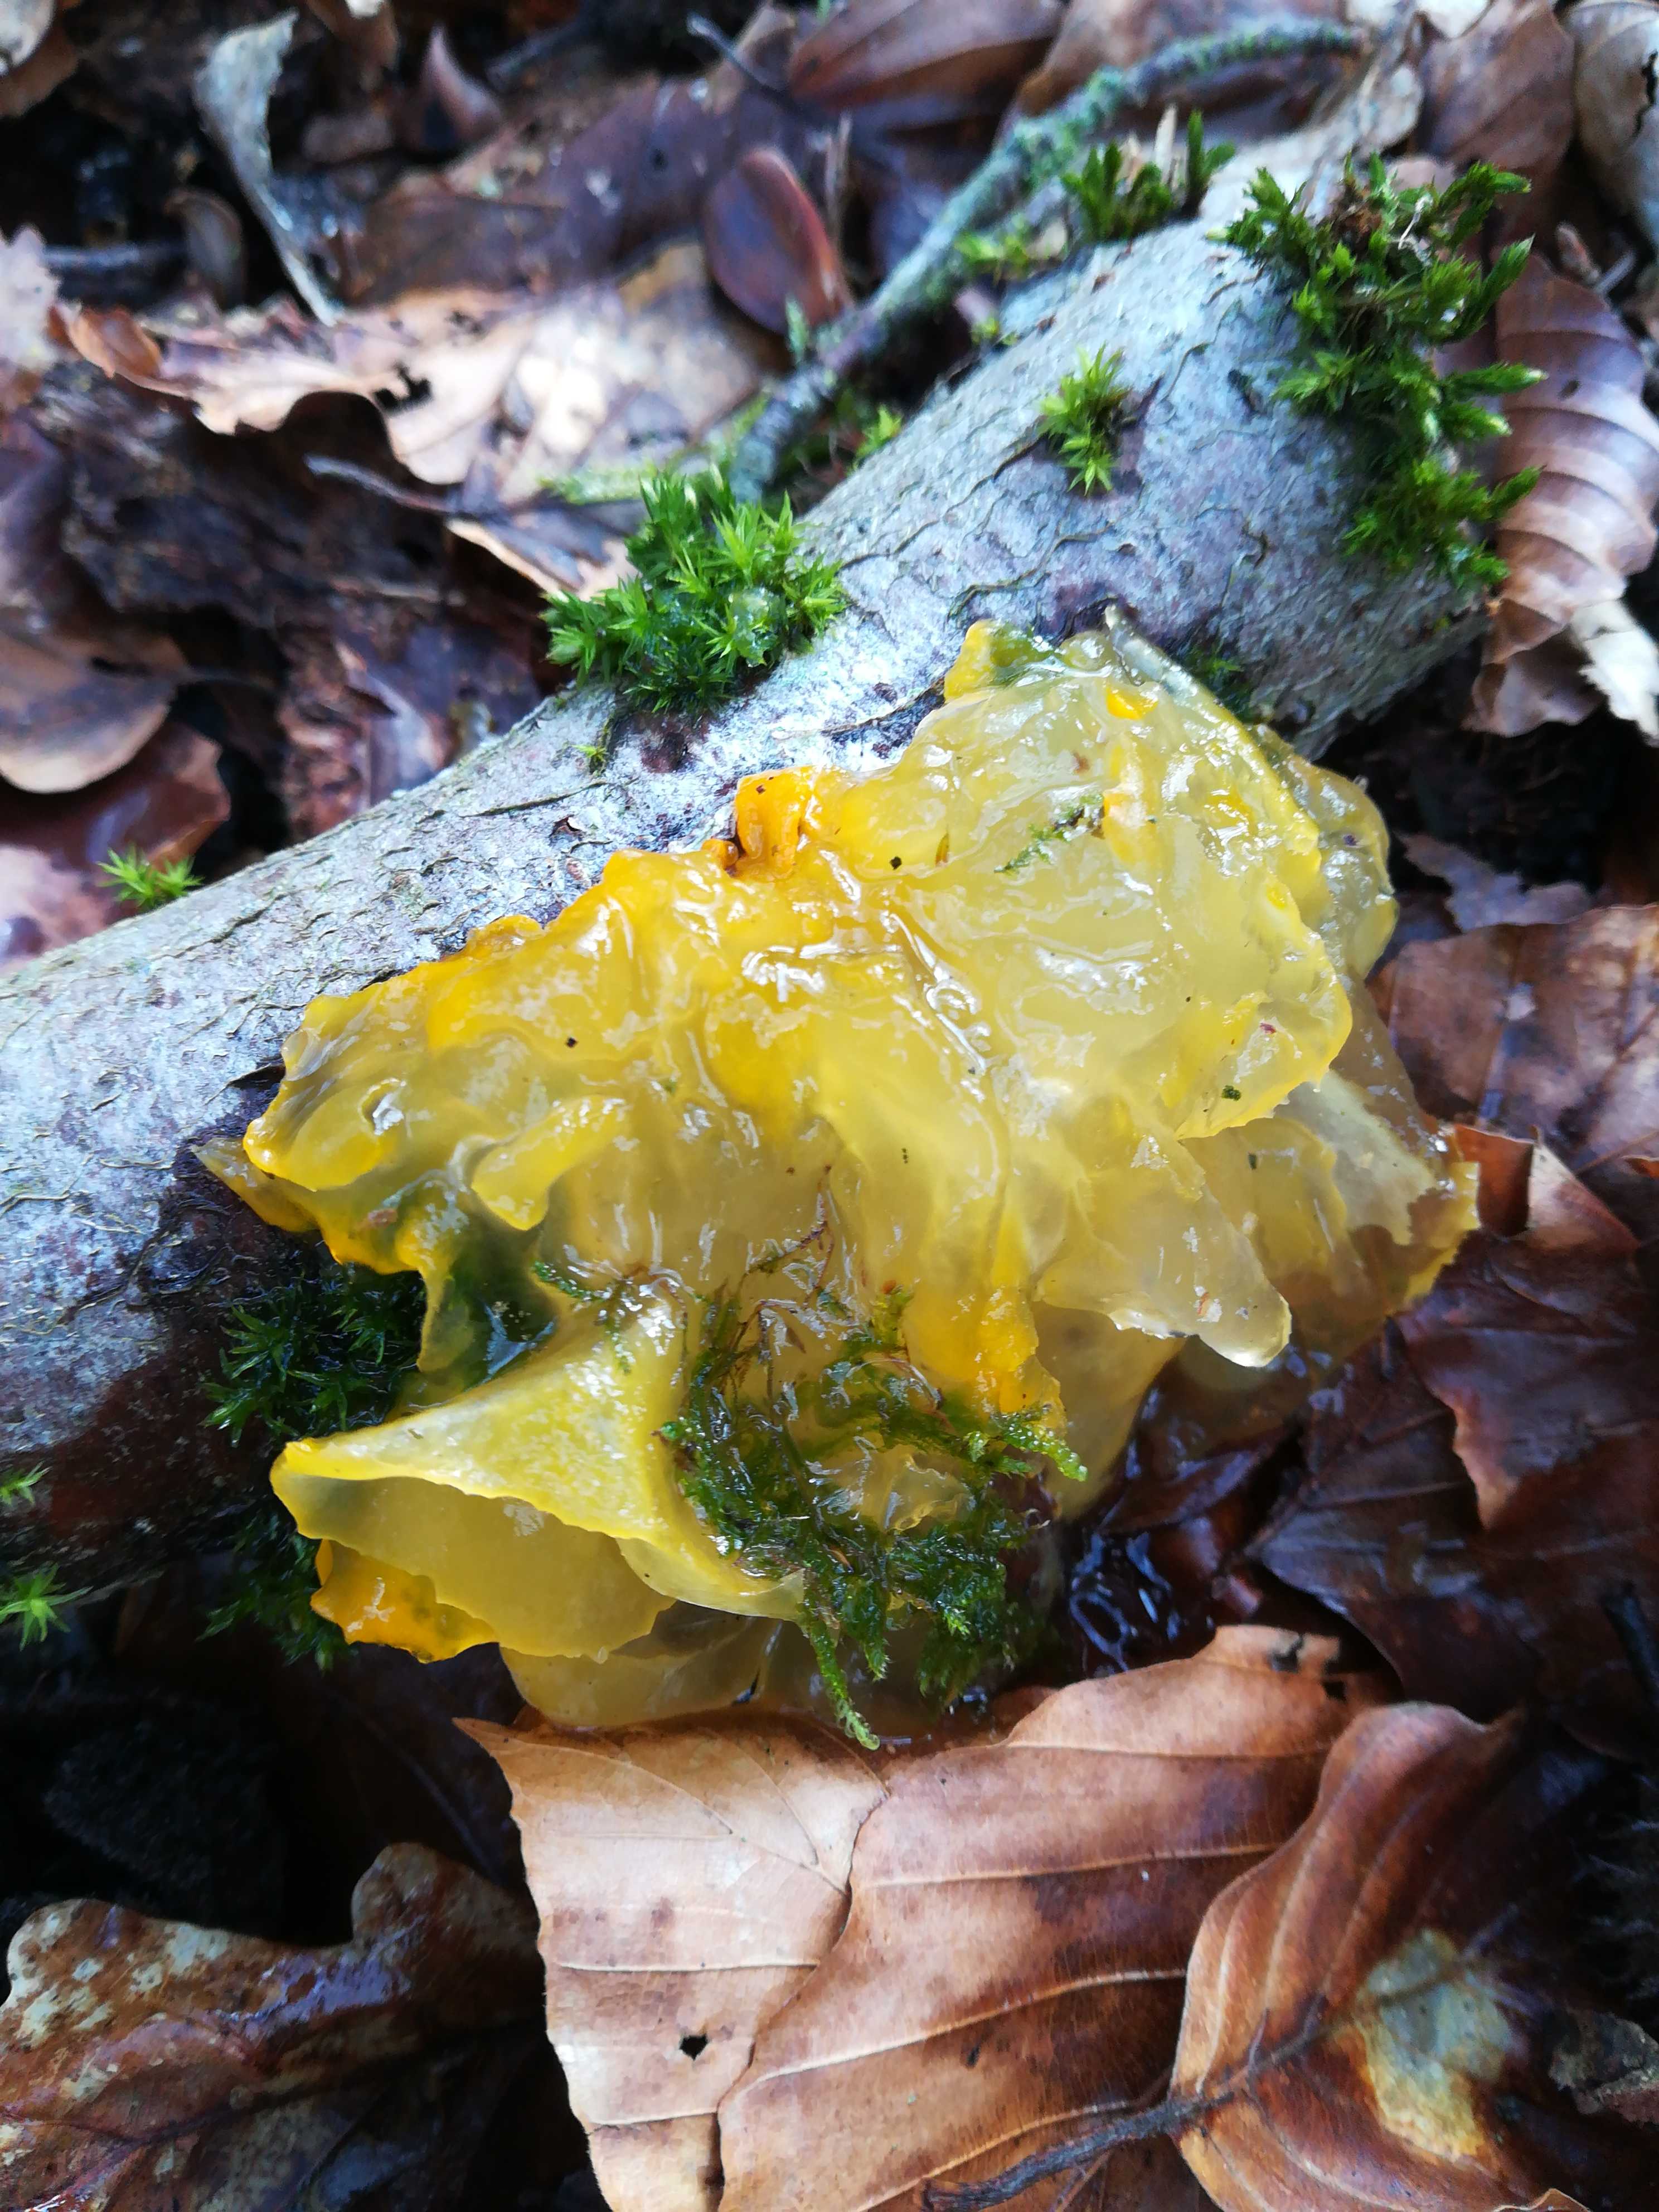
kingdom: Fungi
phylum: Basidiomycota
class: Tremellomycetes
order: Tremellales
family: Tremellaceae
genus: Tremella
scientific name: Tremella mesenterica
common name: gul bævresvamp
